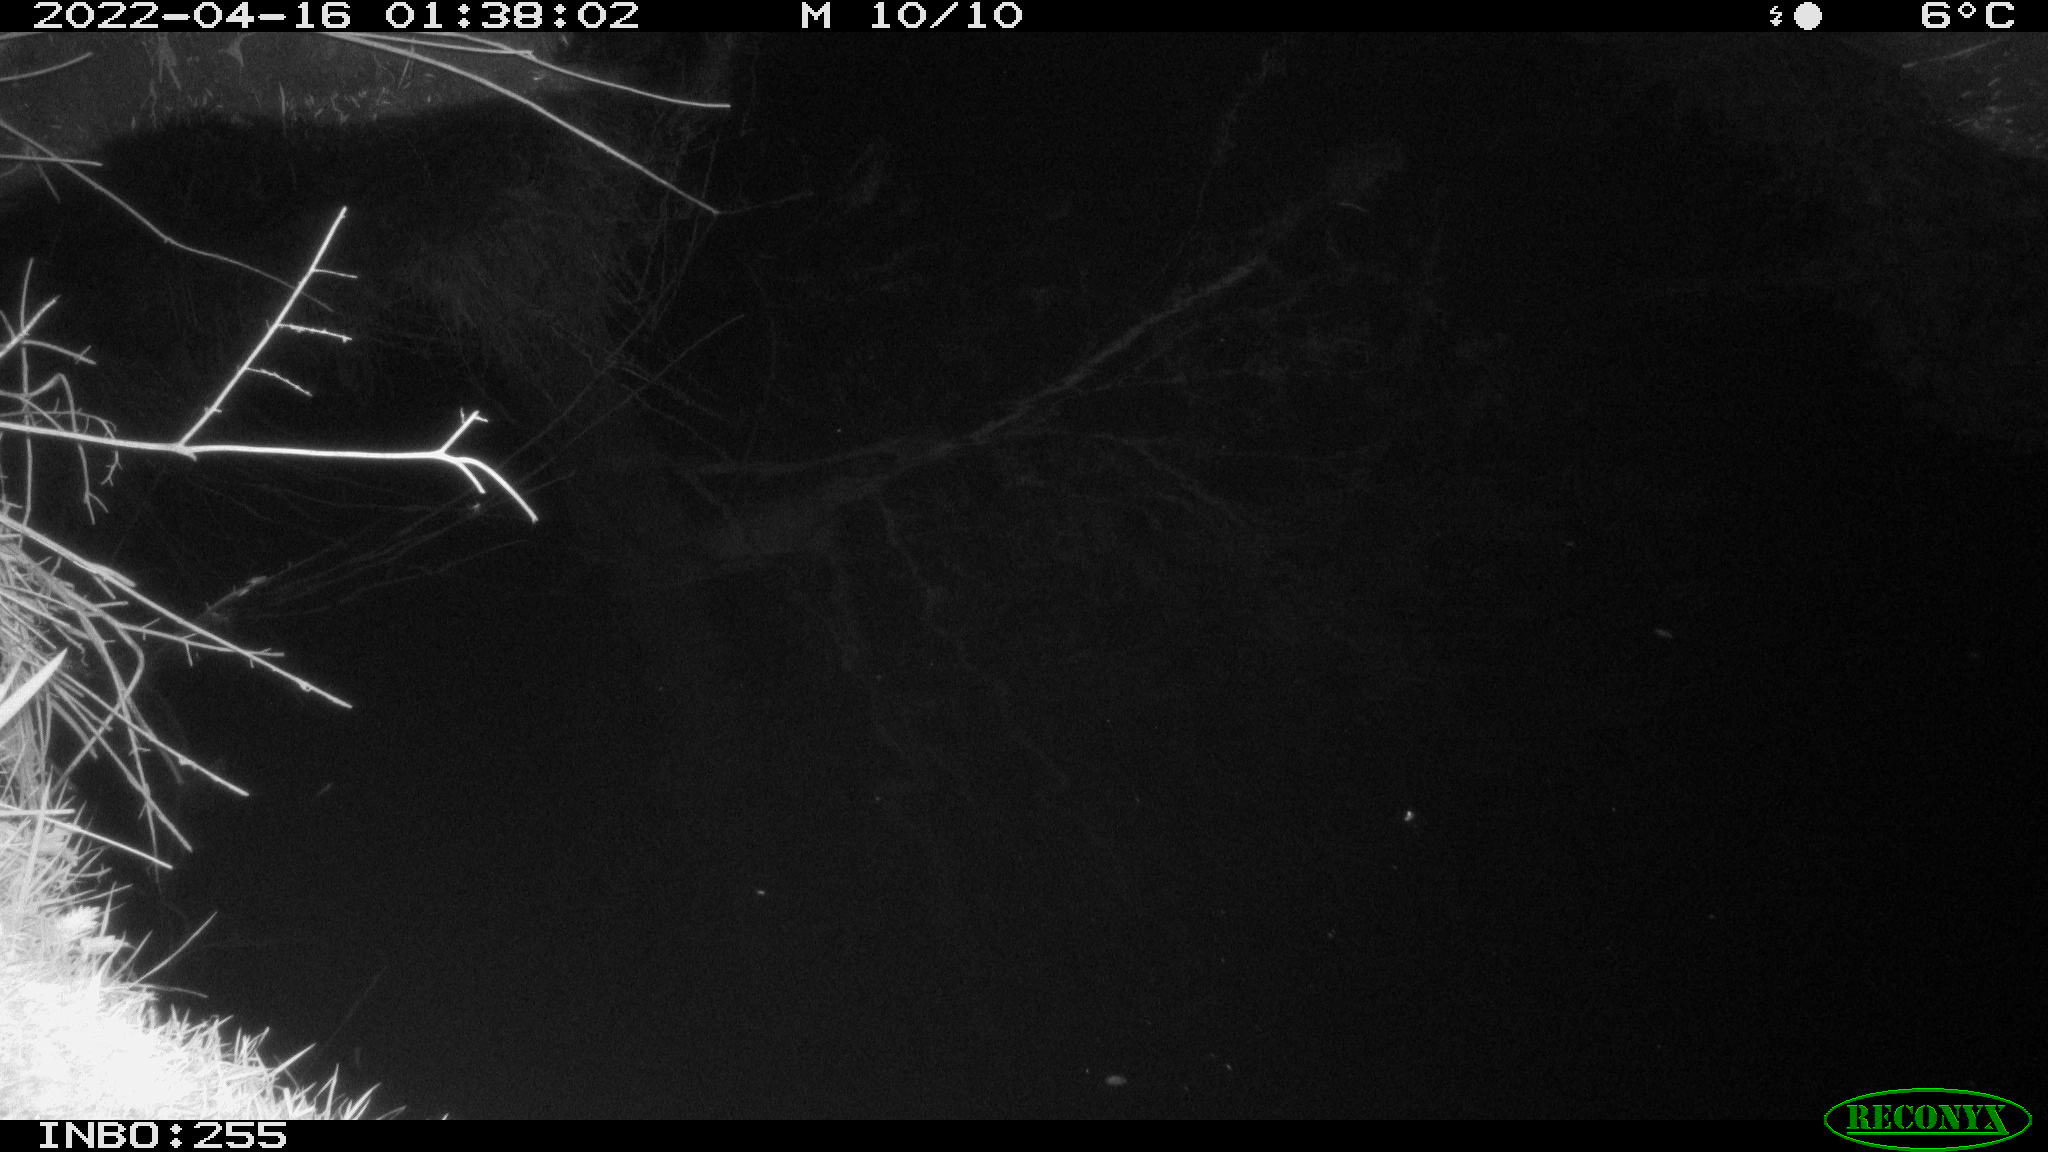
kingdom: Animalia
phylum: Chordata
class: Aves
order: Anseriformes
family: Anatidae
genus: Anas
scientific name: Anas platyrhynchos
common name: Mallard
